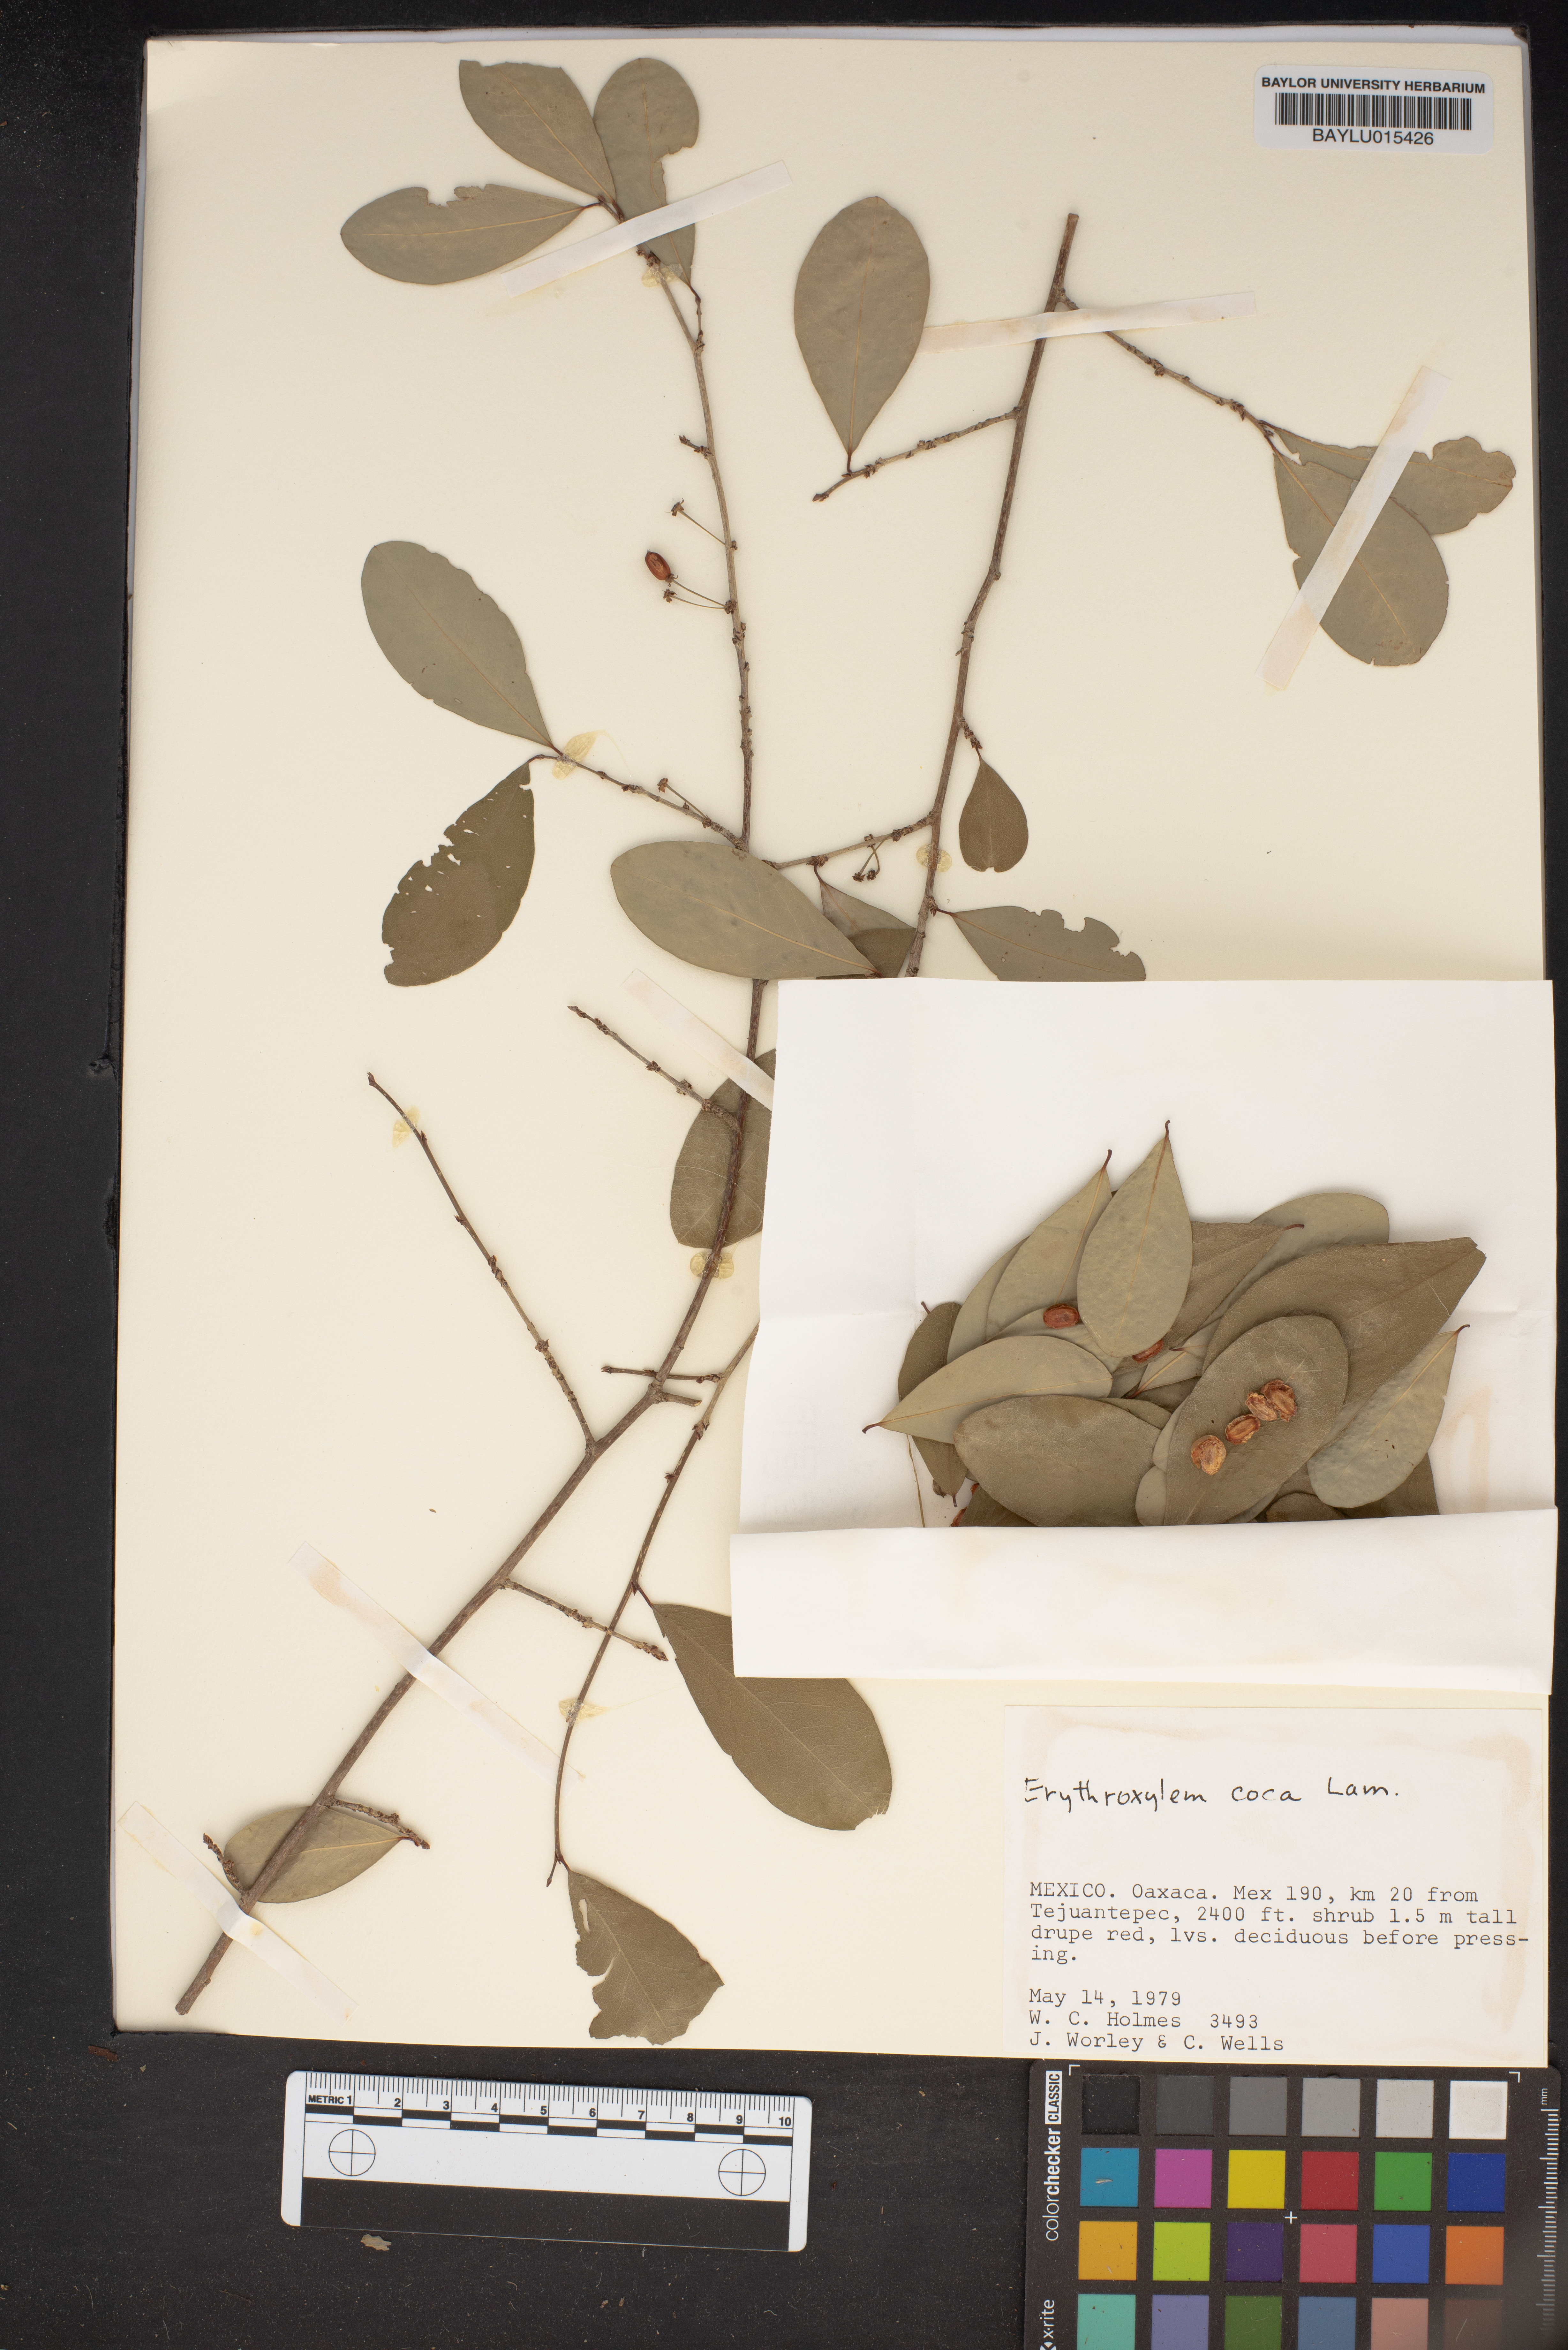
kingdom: Plantae
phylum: Tracheophyta
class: Magnoliopsida
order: Malpighiales
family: Erythroxylaceae
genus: Erythroxylum
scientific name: Erythroxylum coca
